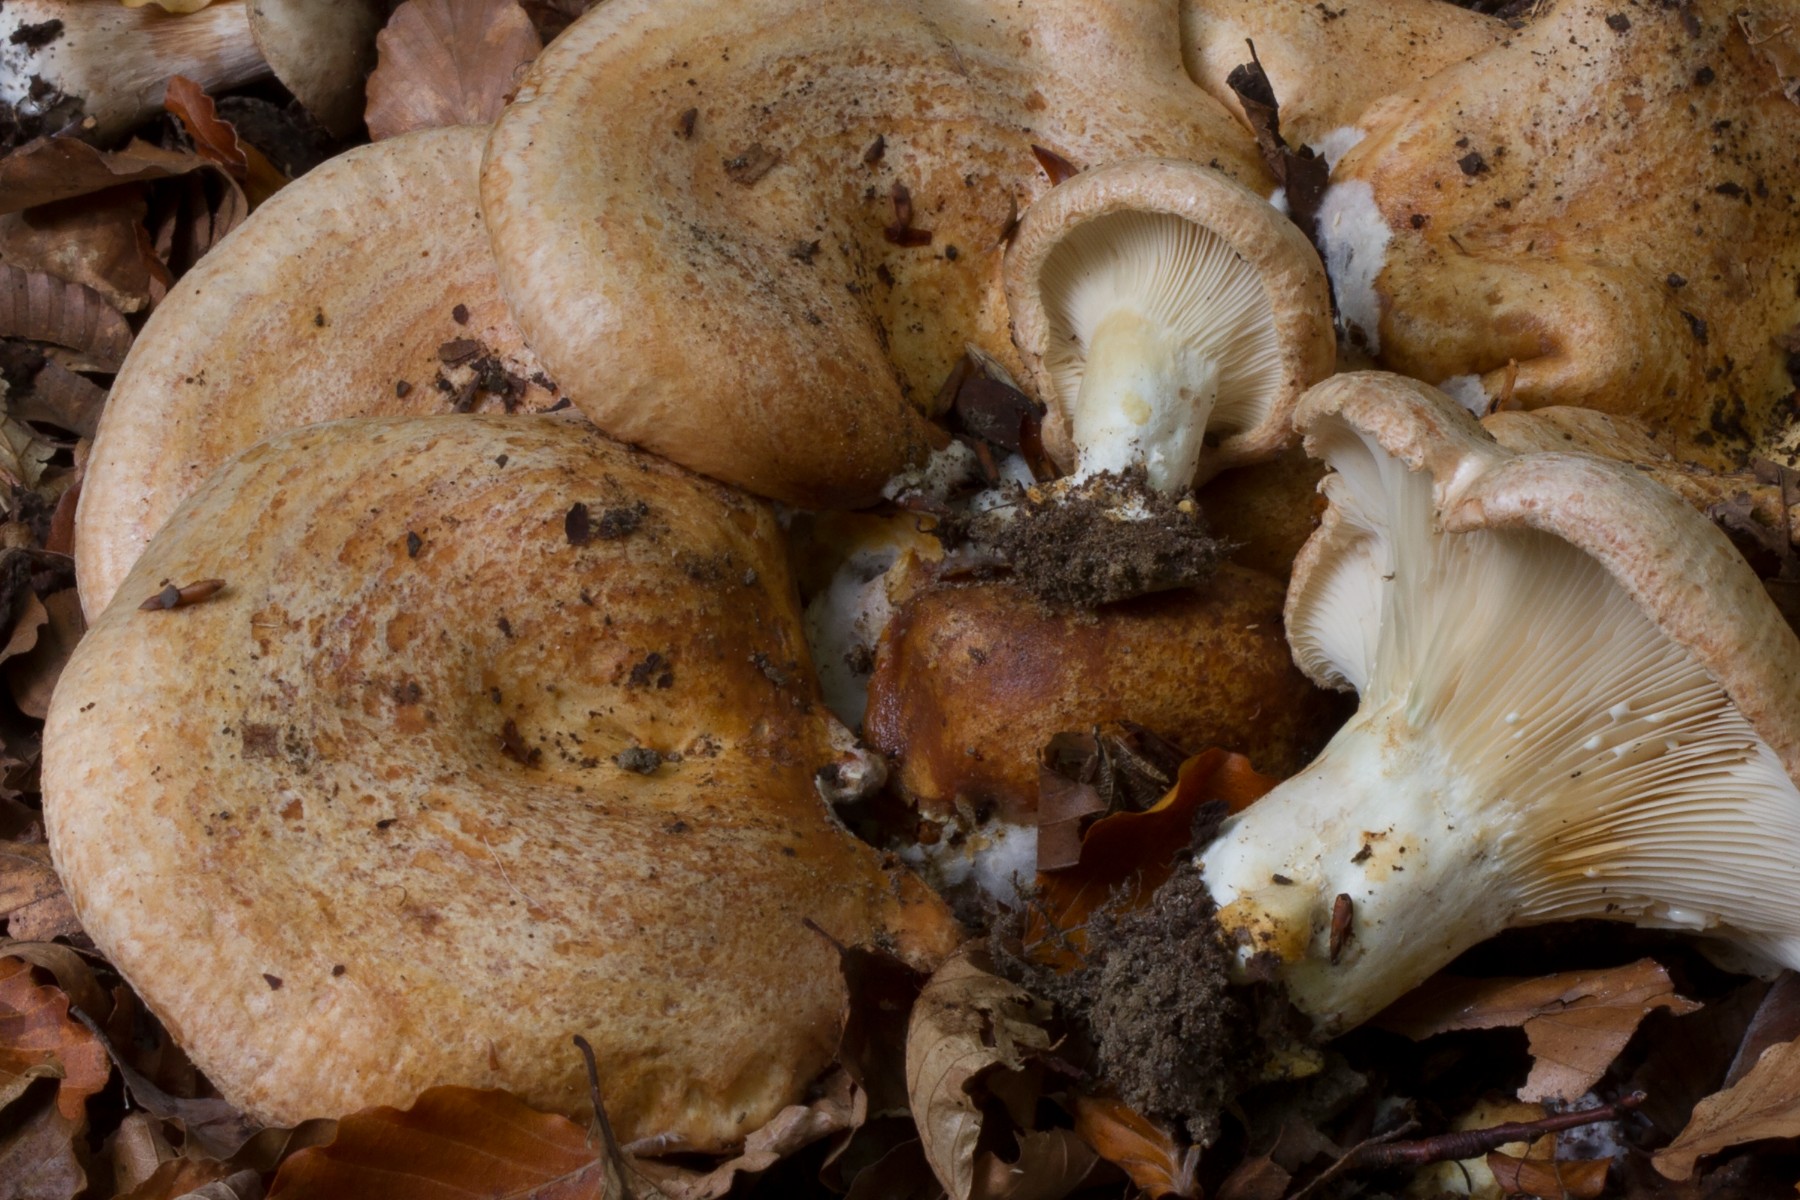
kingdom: Fungi
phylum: Basidiomycota
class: Agaricomycetes
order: Russulales
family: Russulaceae
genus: Lactarius
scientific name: Lactarius zonarius
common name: zoneret mælkehat
